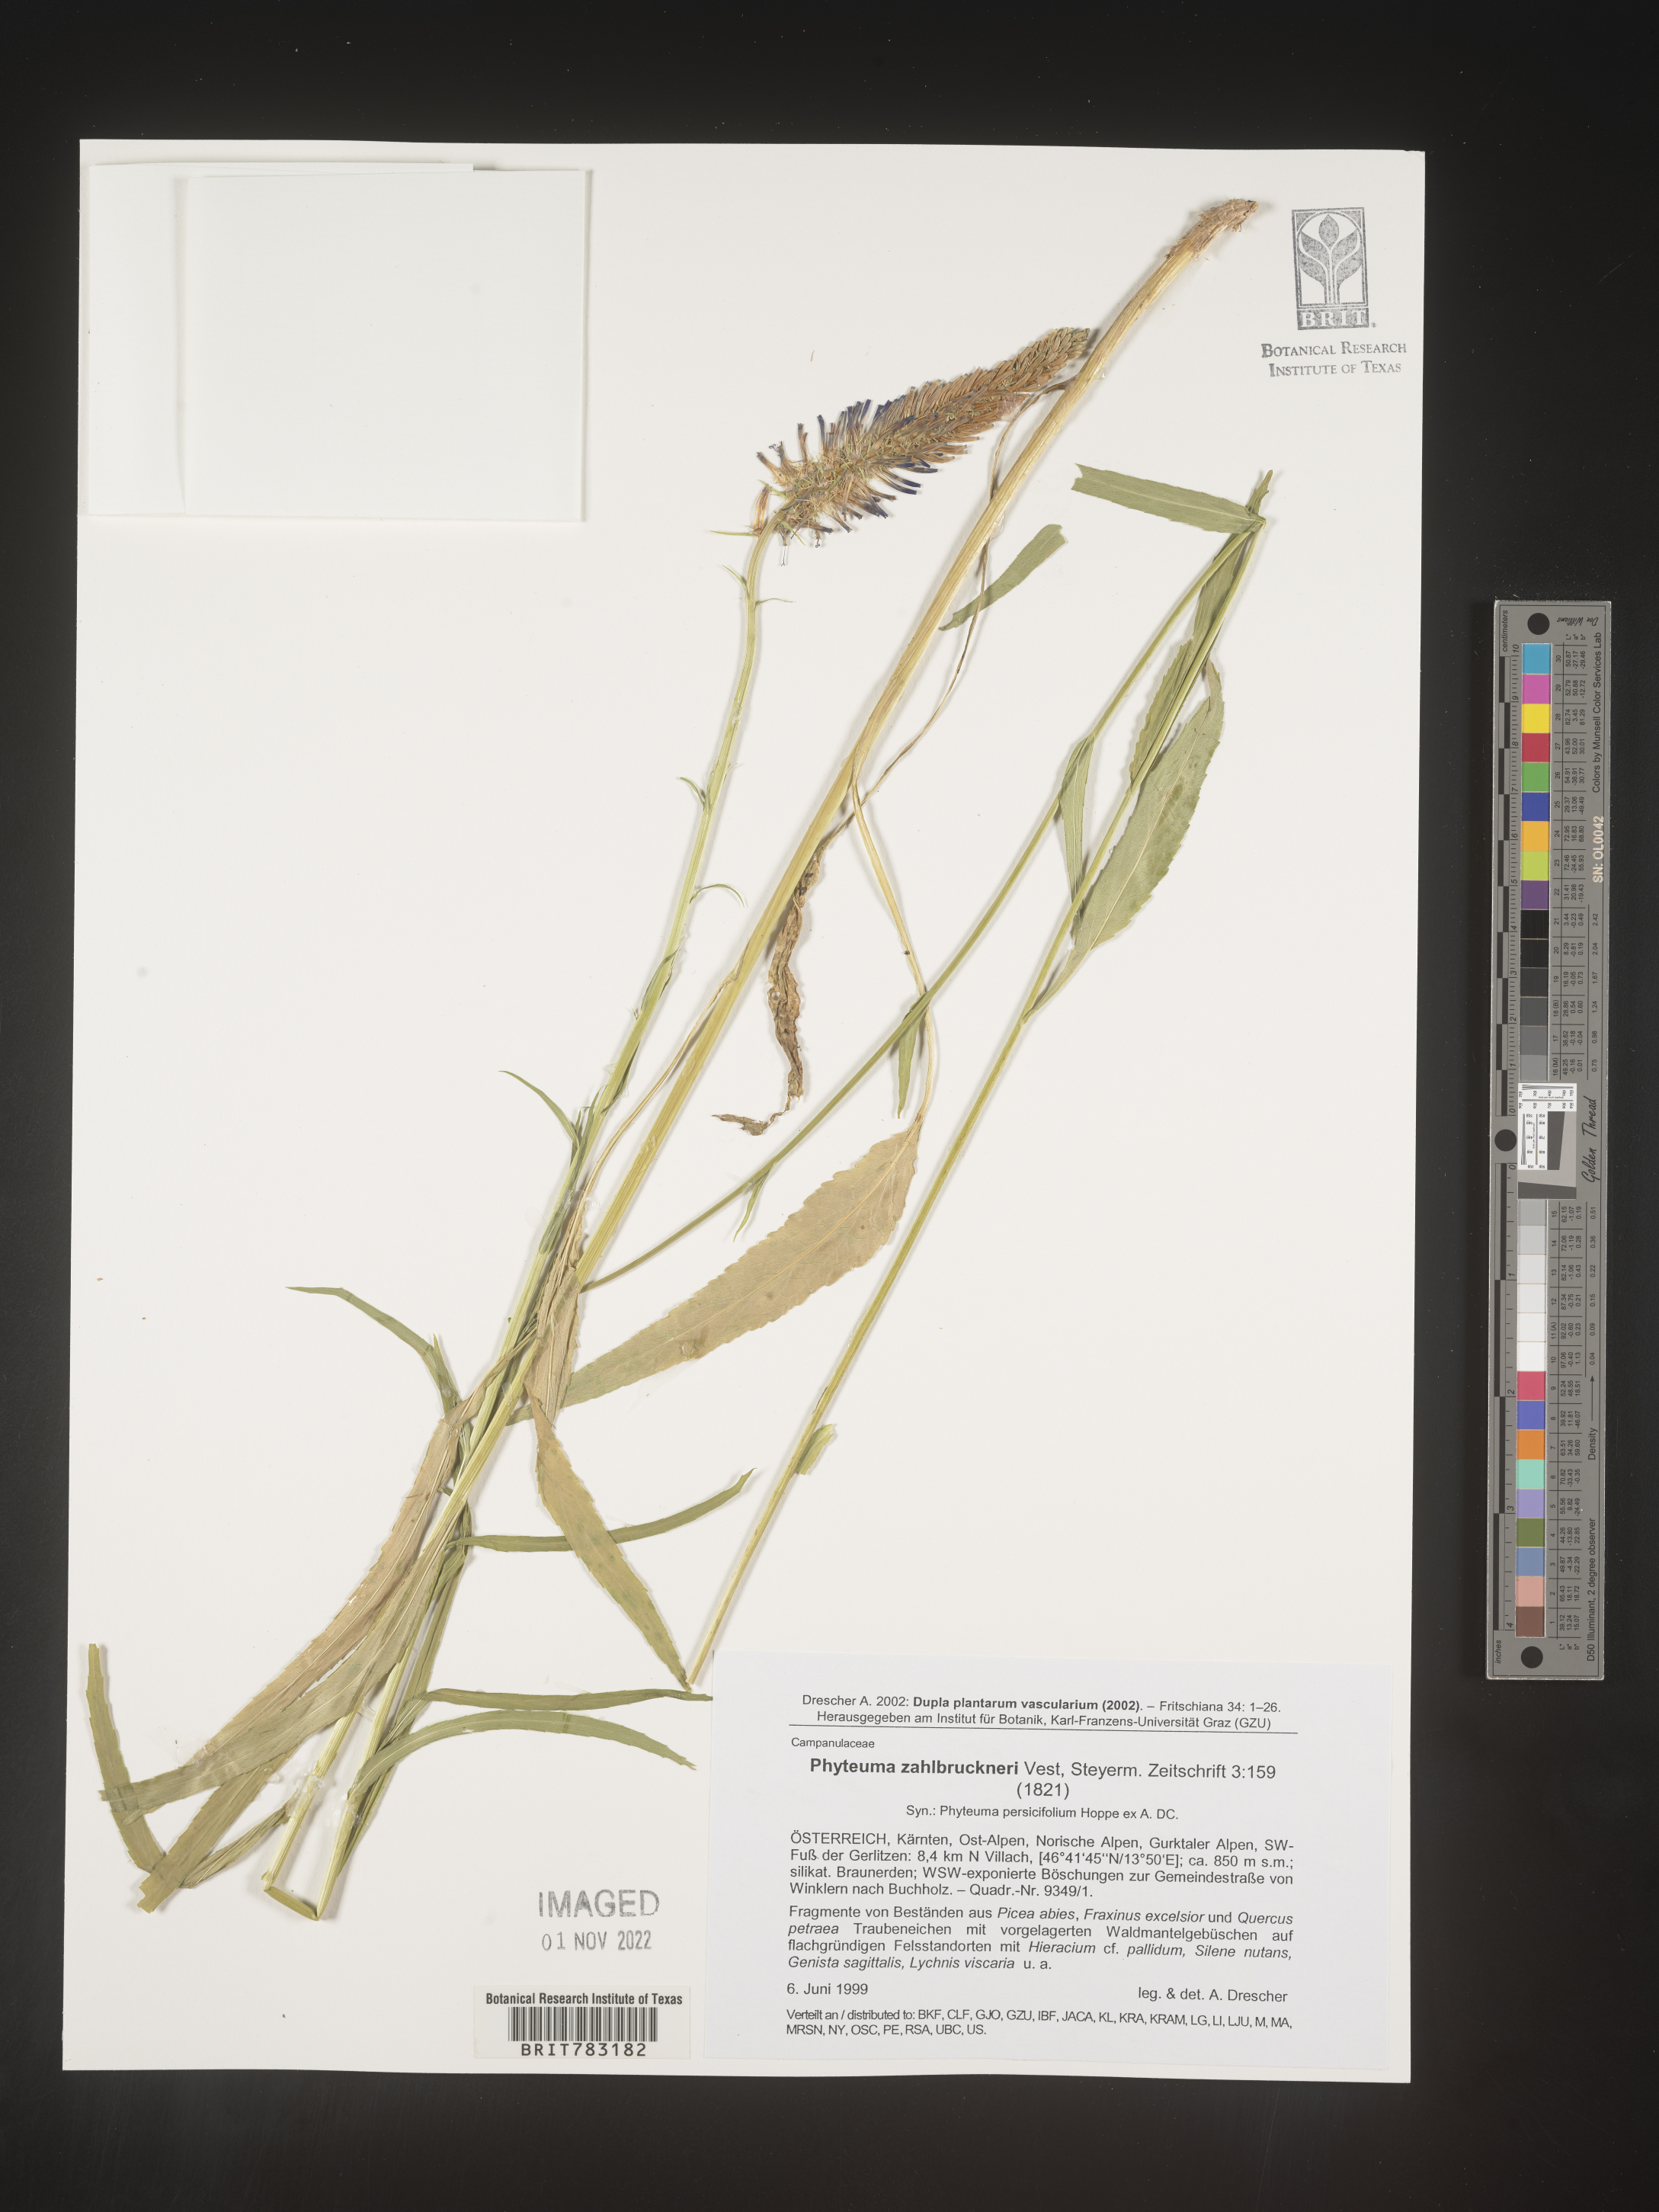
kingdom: Plantae
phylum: Tracheophyta
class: Magnoliopsida
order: Asterales
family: Campanulaceae
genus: Phyteuma
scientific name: Phyteuma
